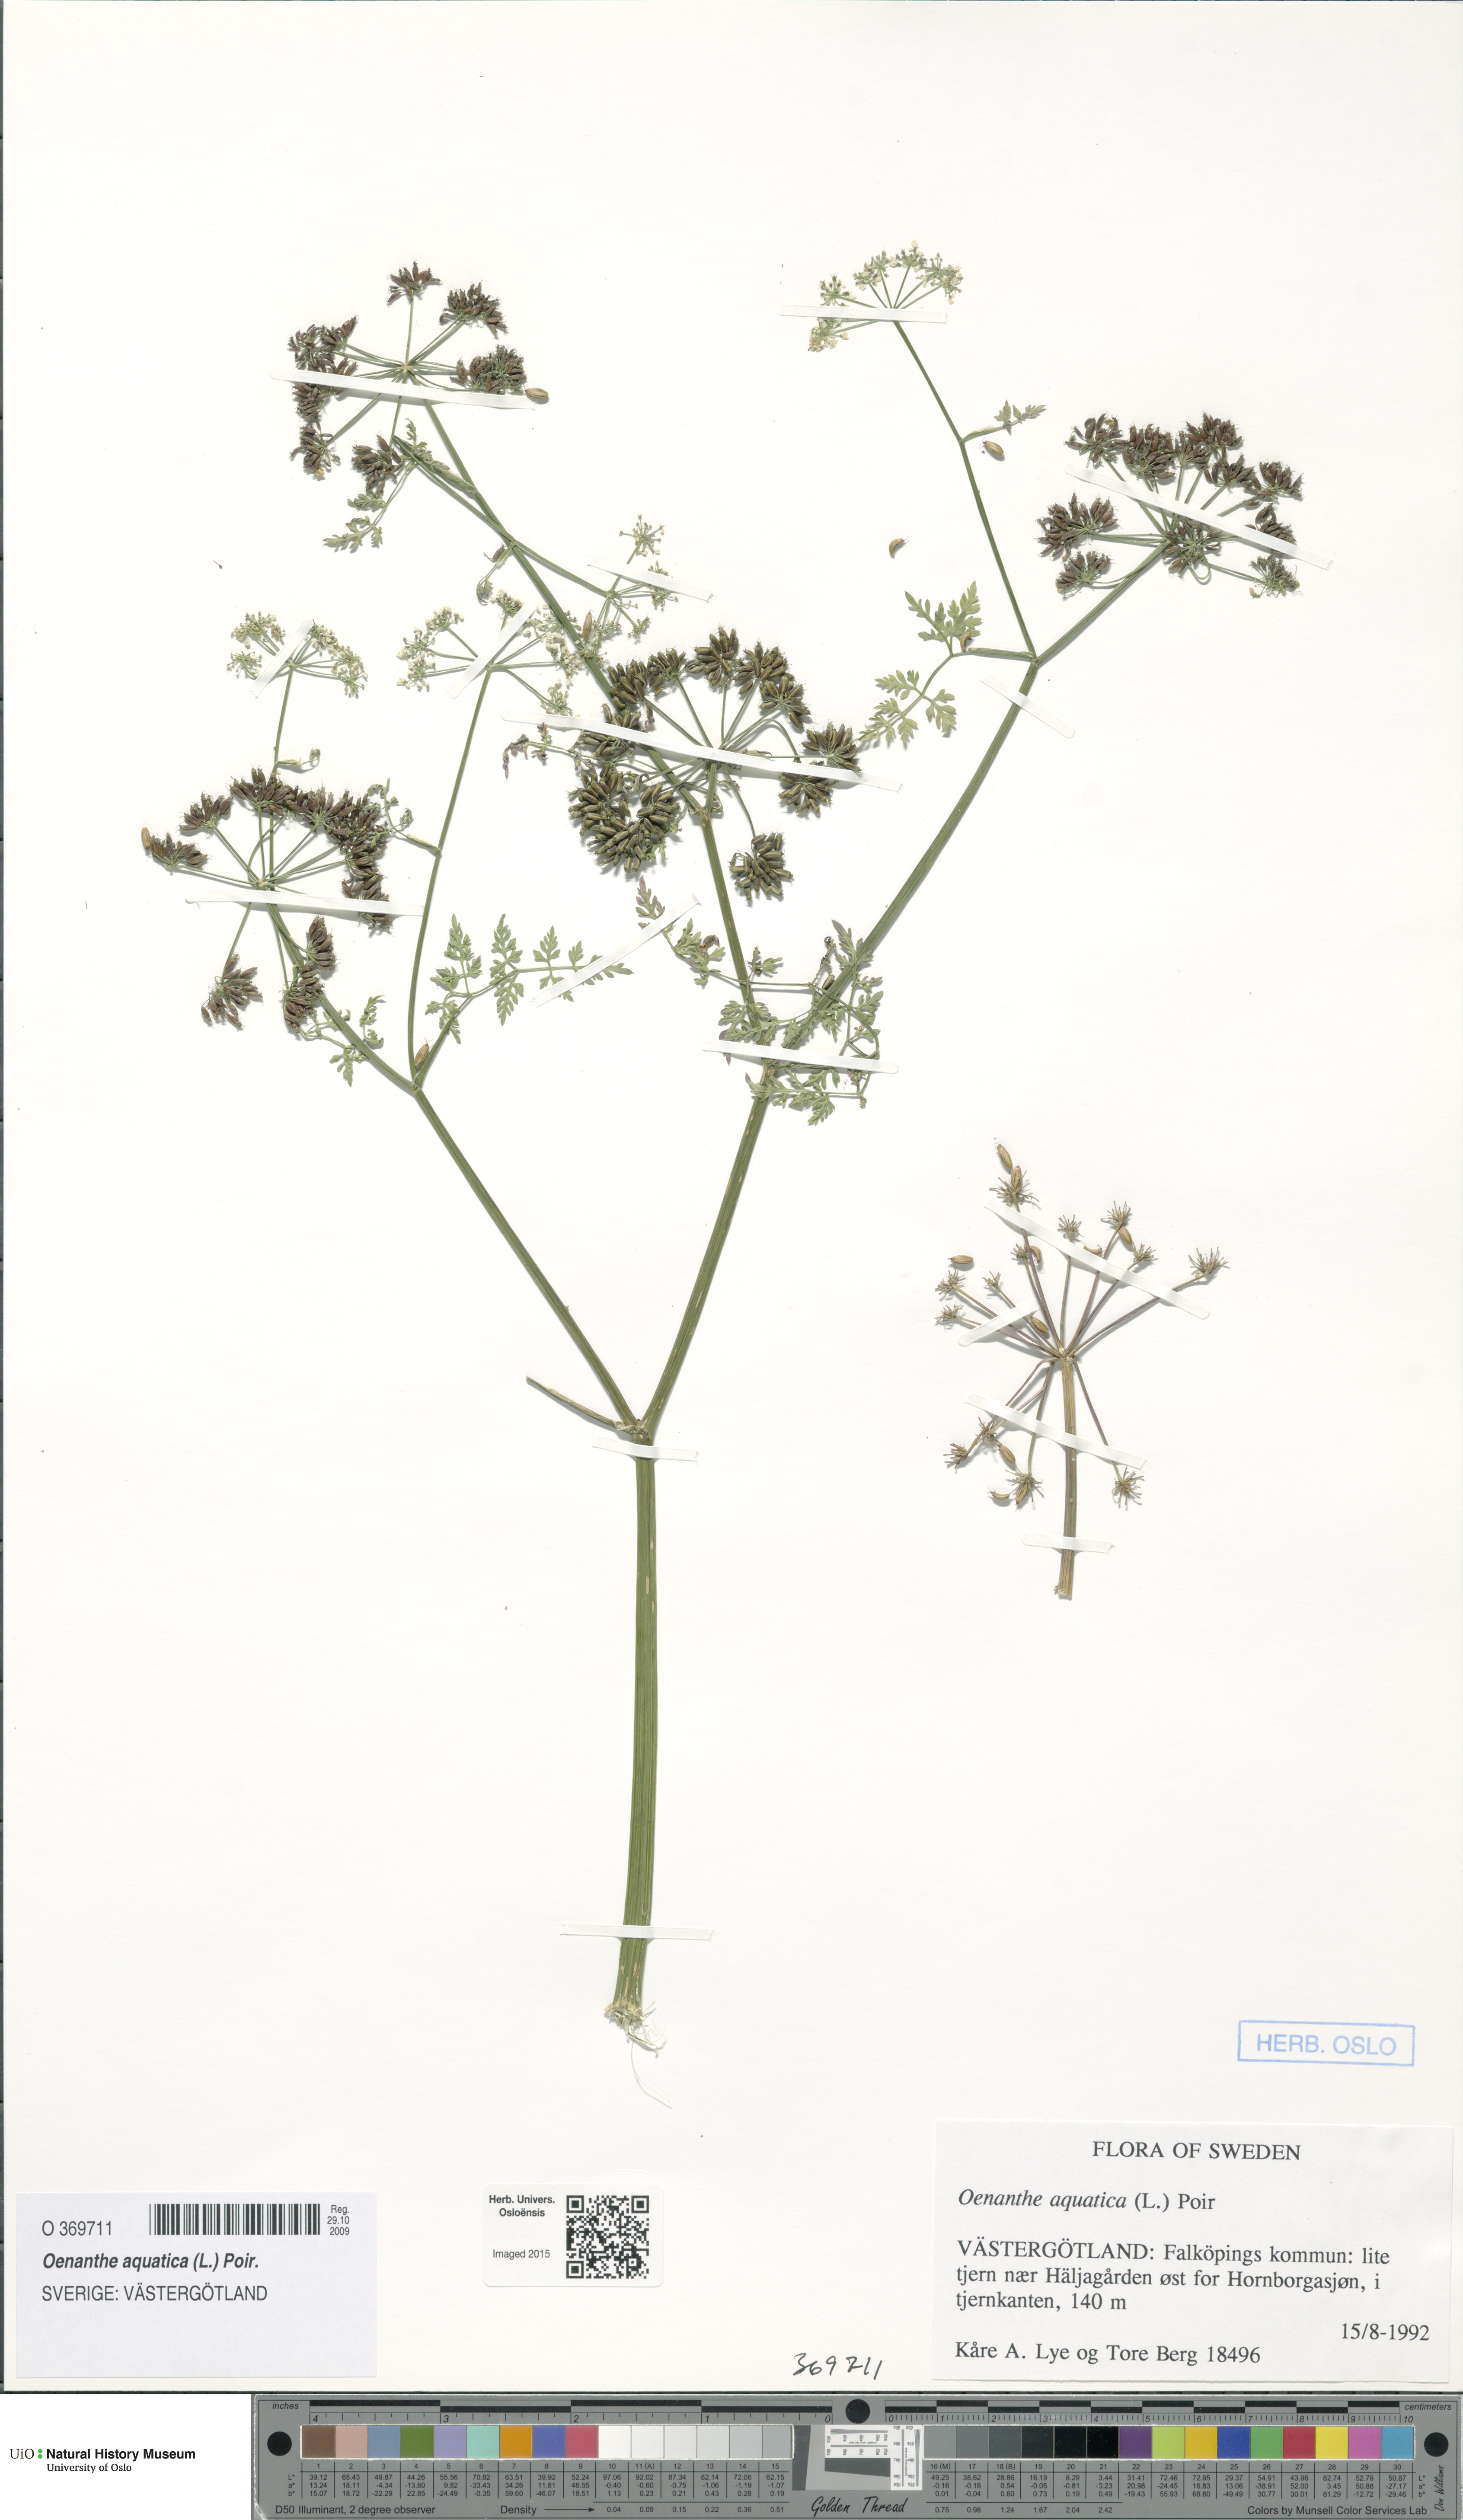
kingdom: Plantae
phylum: Tracheophyta
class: Magnoliopsida
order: Apiales
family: Apiaceae
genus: Oenanthe
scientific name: Oenanthe aquatica
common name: Fine-leaved water-dropwort
